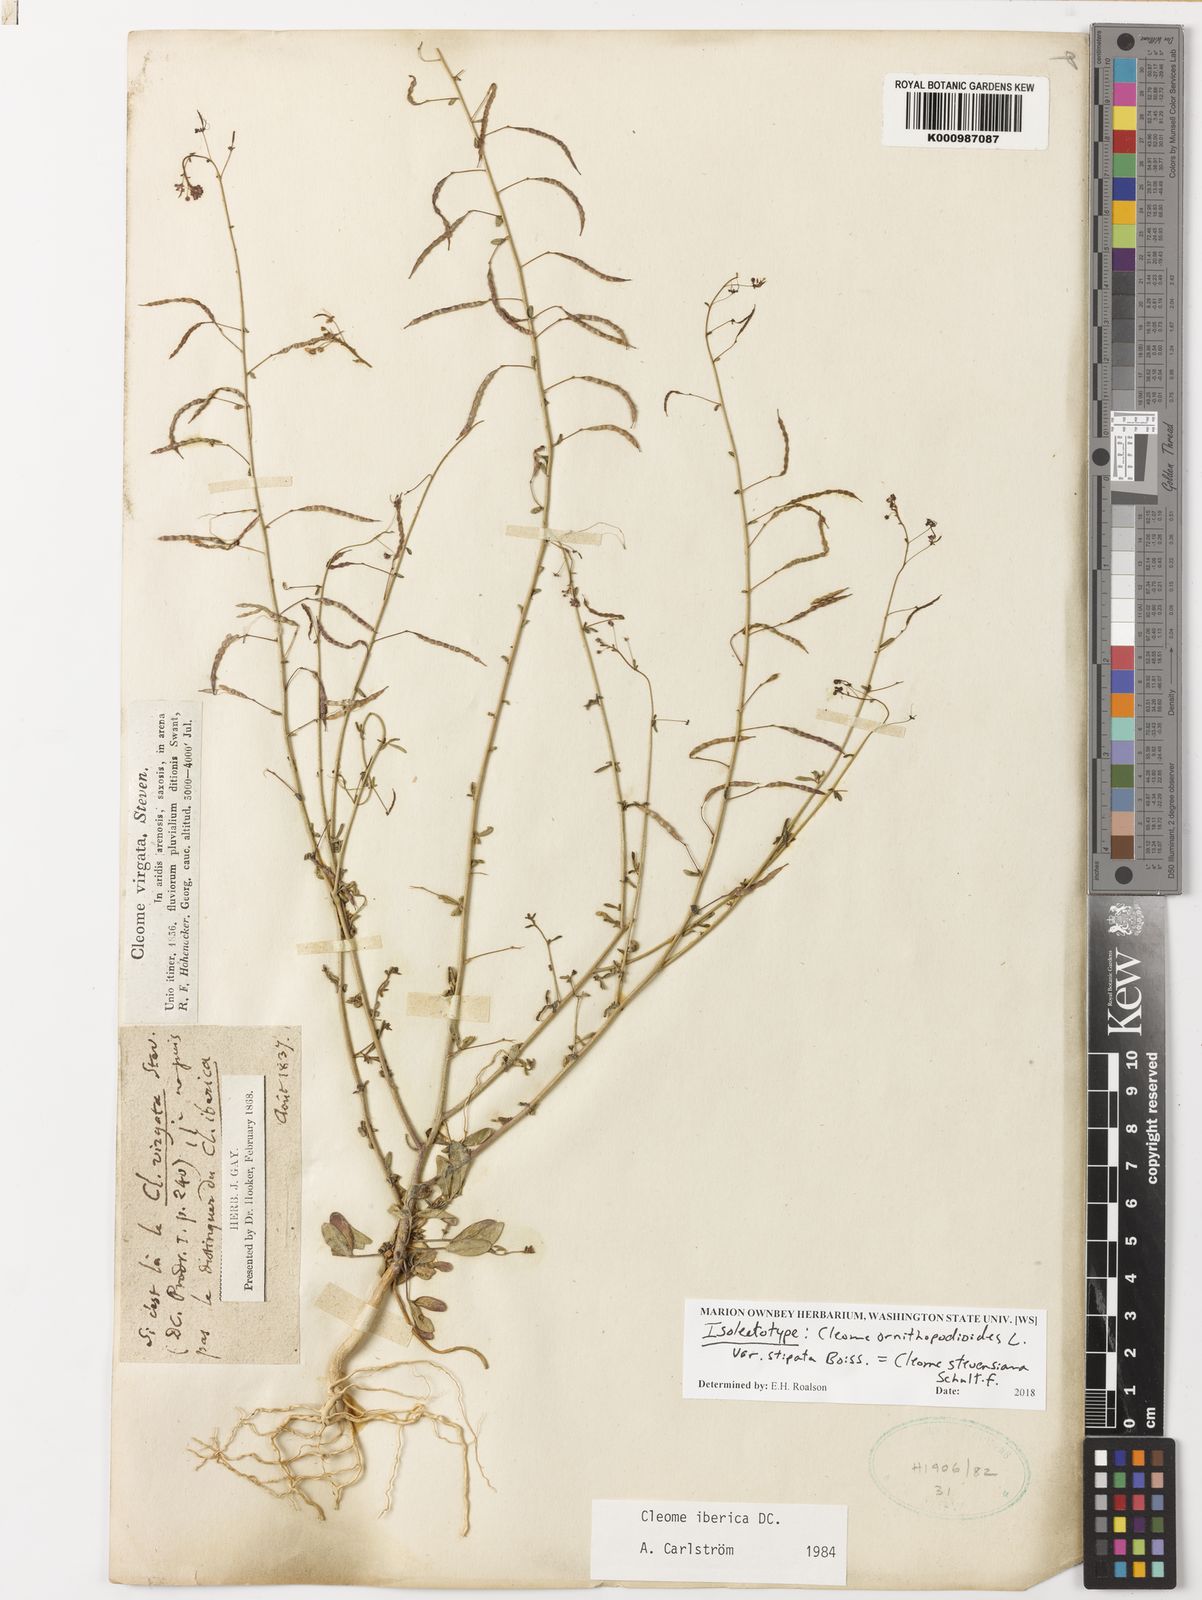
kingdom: Plantae
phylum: Tracheophyta
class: Magnoliopsida
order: Brassicales
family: Cleomaceae
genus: Cleome
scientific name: Cleome steveniana
